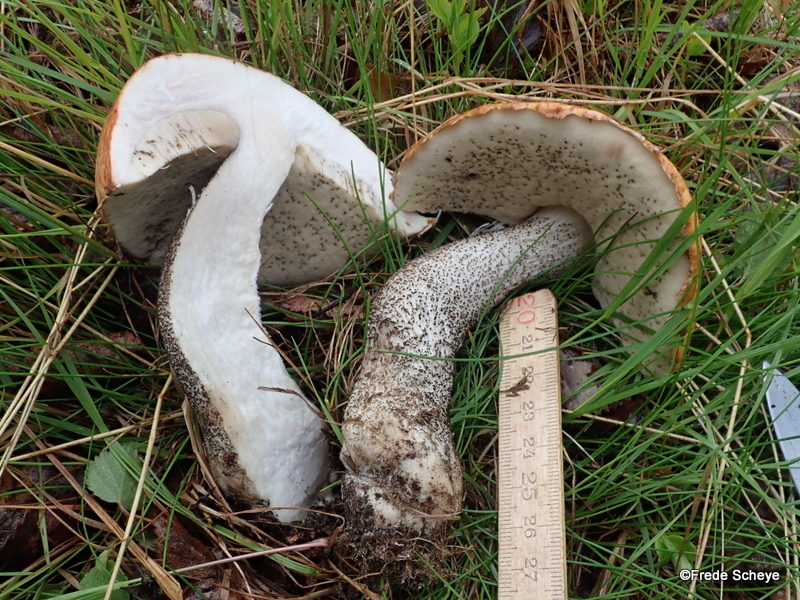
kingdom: Fungi
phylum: Basidiomycota
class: Agaricomycetes
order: Boletales
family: Boletaceae
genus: Leccinum
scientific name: Leccinum versipelle
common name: orange skælrørhat
